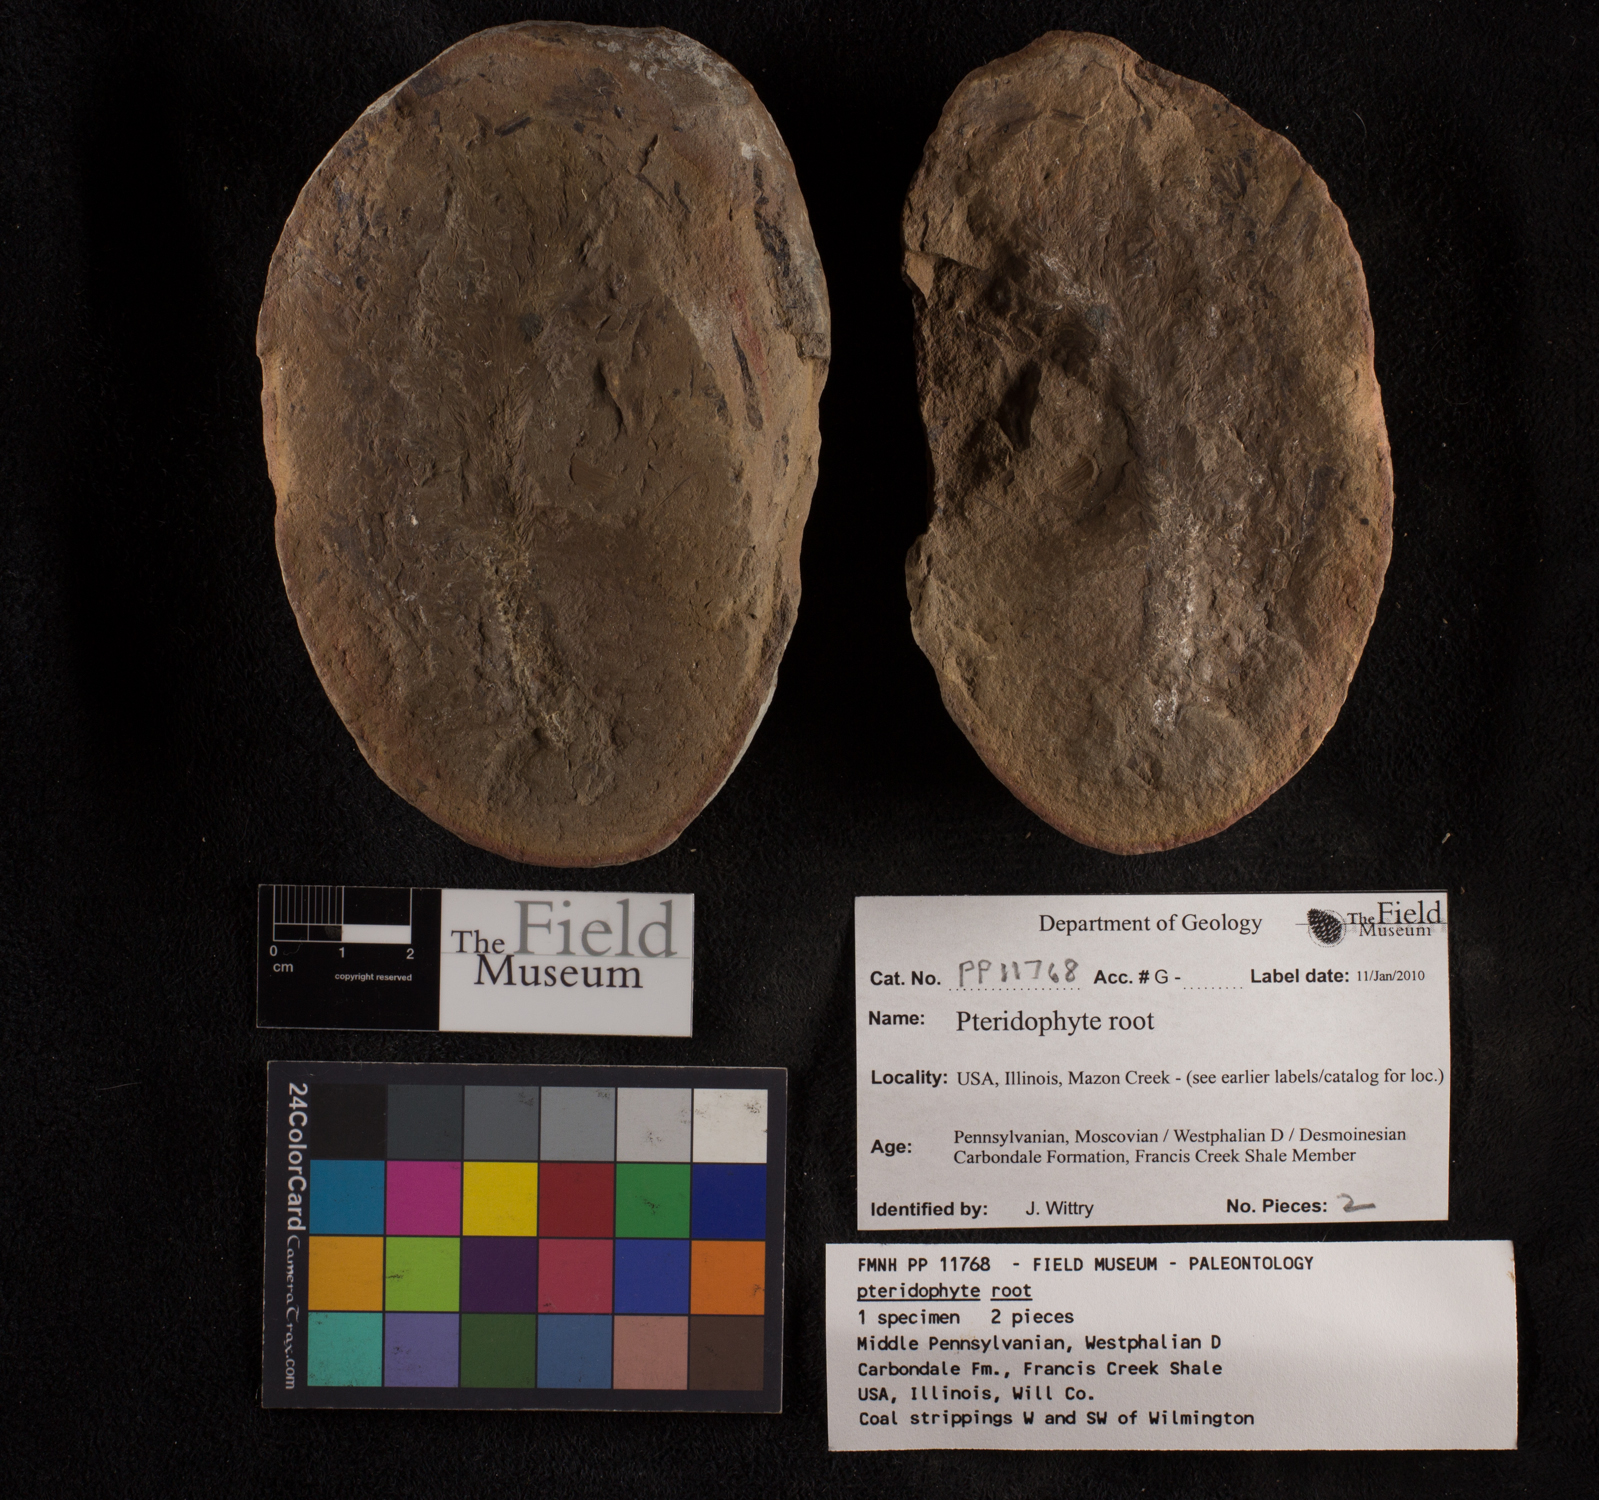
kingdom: Plantae
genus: Rhacophyllum
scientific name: Rhacophyllum
